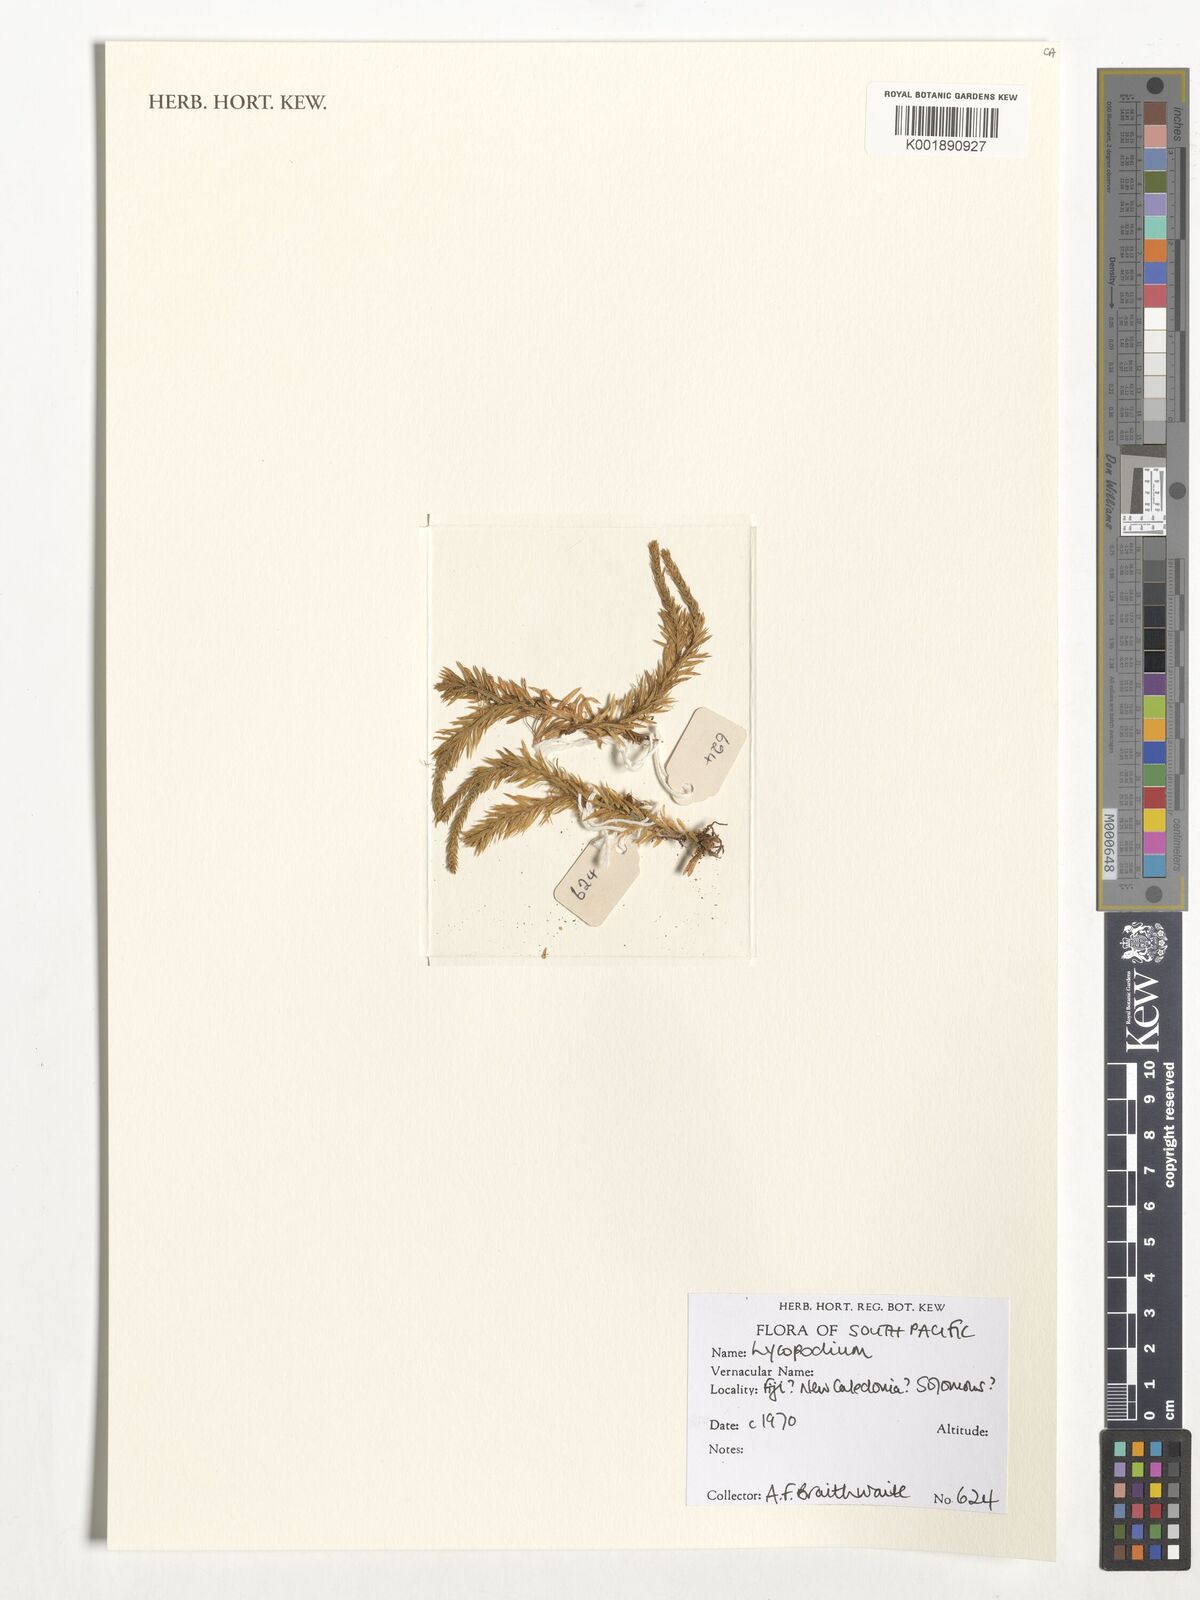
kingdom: Plantae
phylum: Tracheophyta
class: Lycopodiopsida
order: Lycopodiales
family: Lycopodiaceae
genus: Lycopodium
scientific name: Lycopodium
